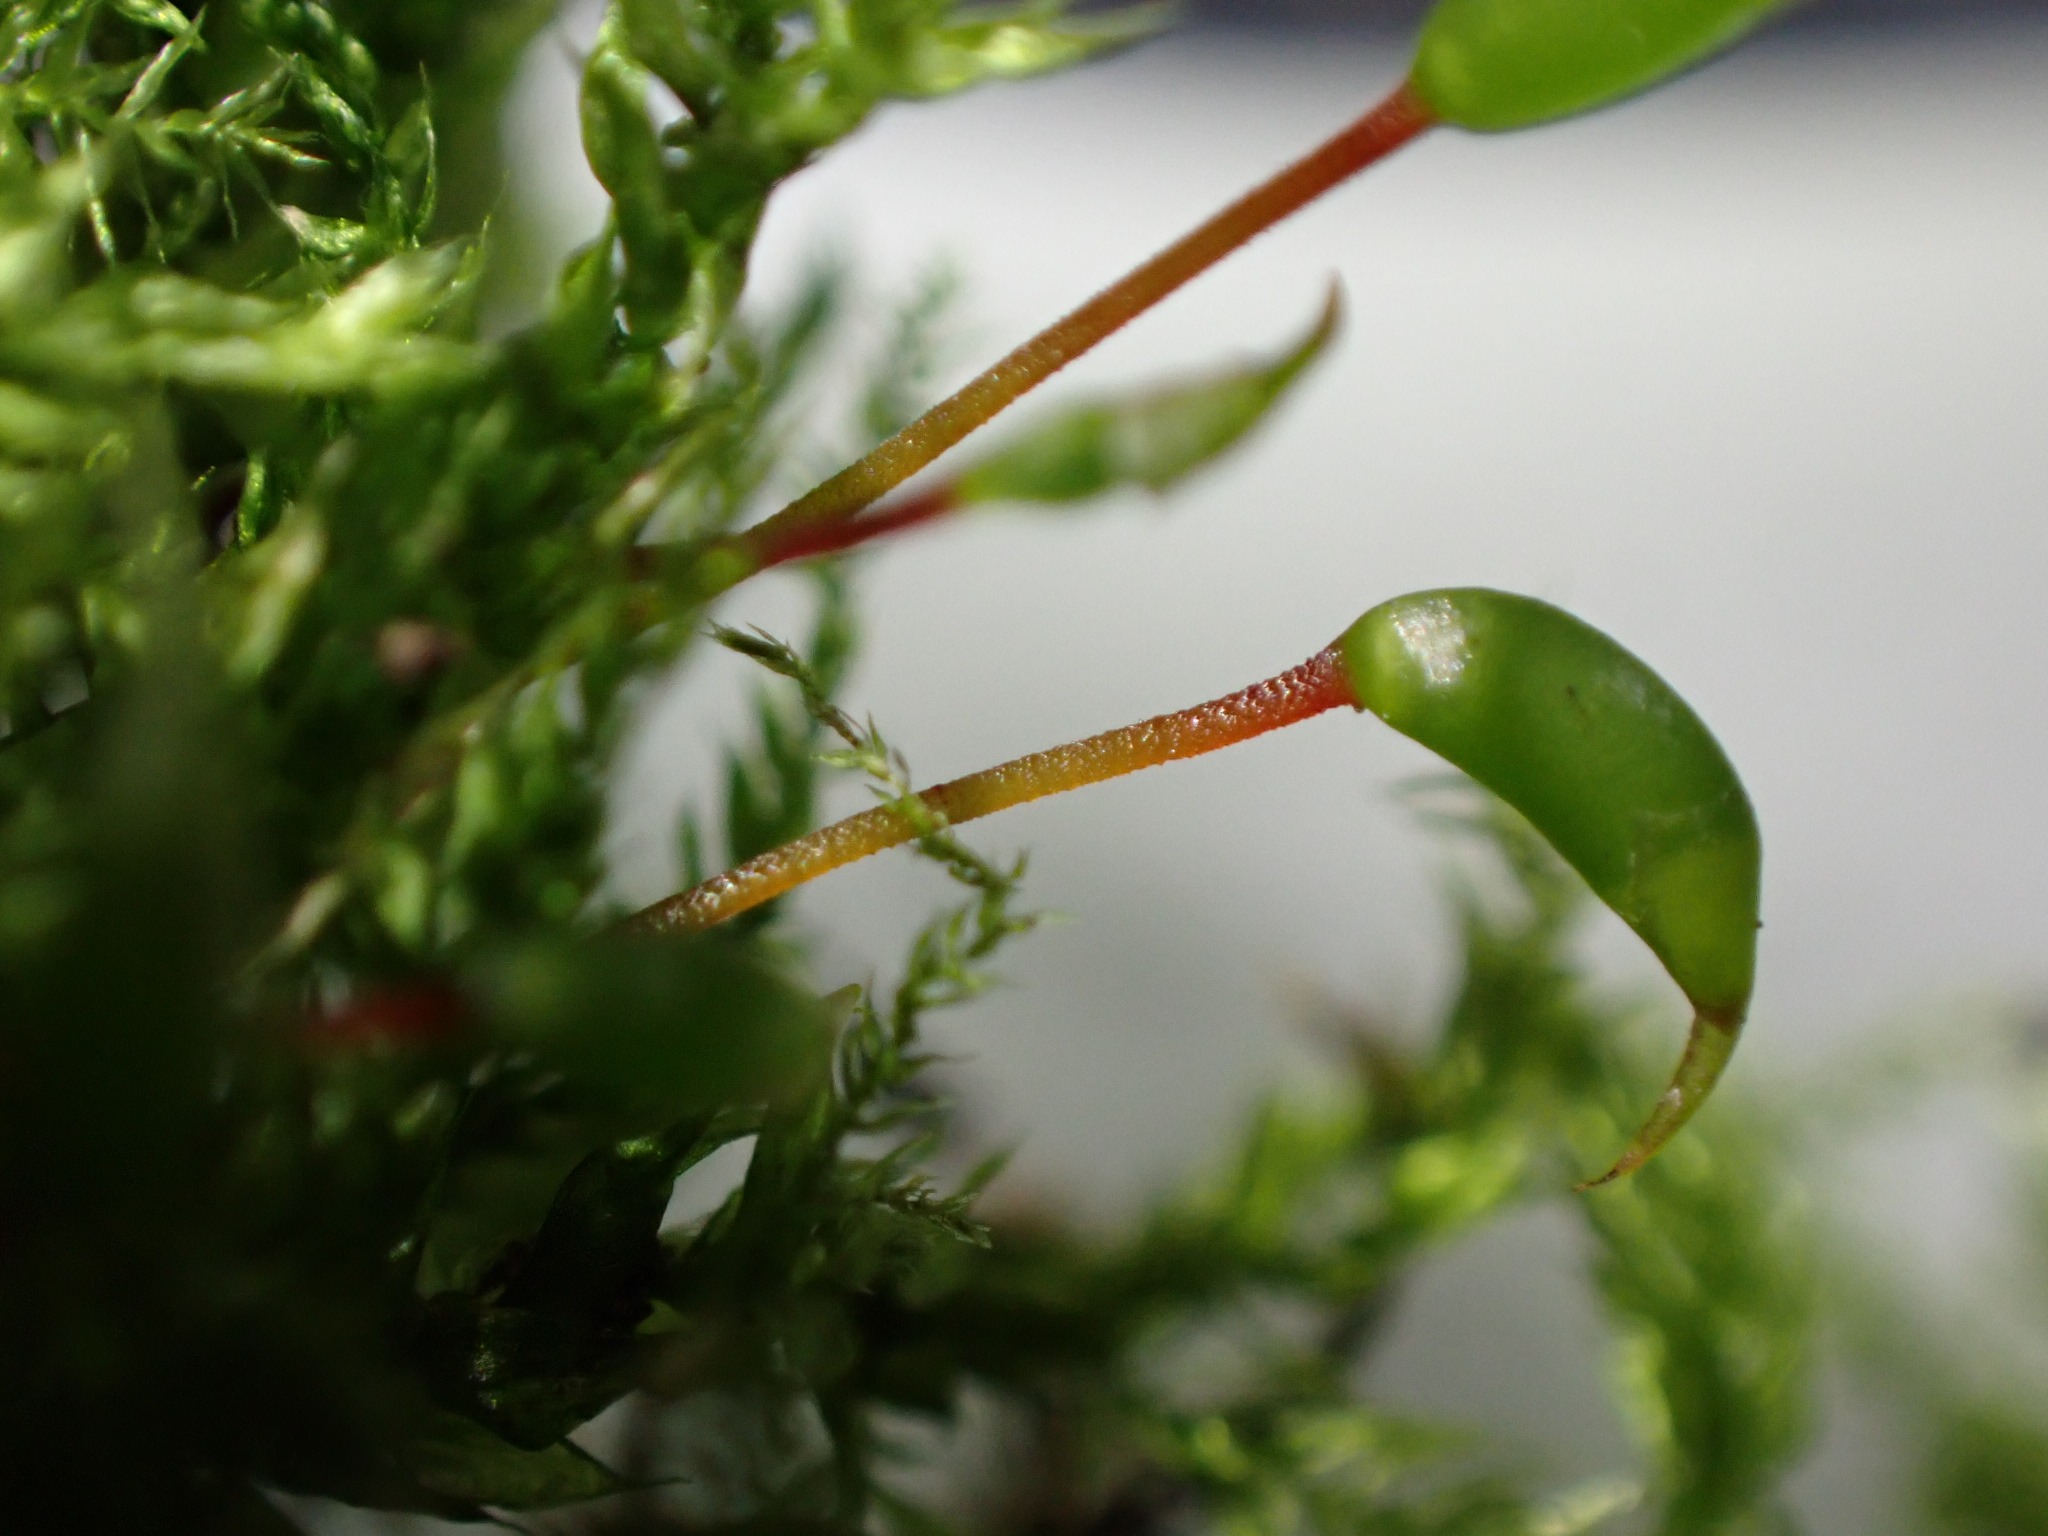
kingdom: Plantae
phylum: Bryophyta
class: Bryopsida
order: Hypnales
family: Brachytheciaceae
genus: Brachythecium
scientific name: Brachythecium rutabulum
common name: Almindelig kortkapsel
